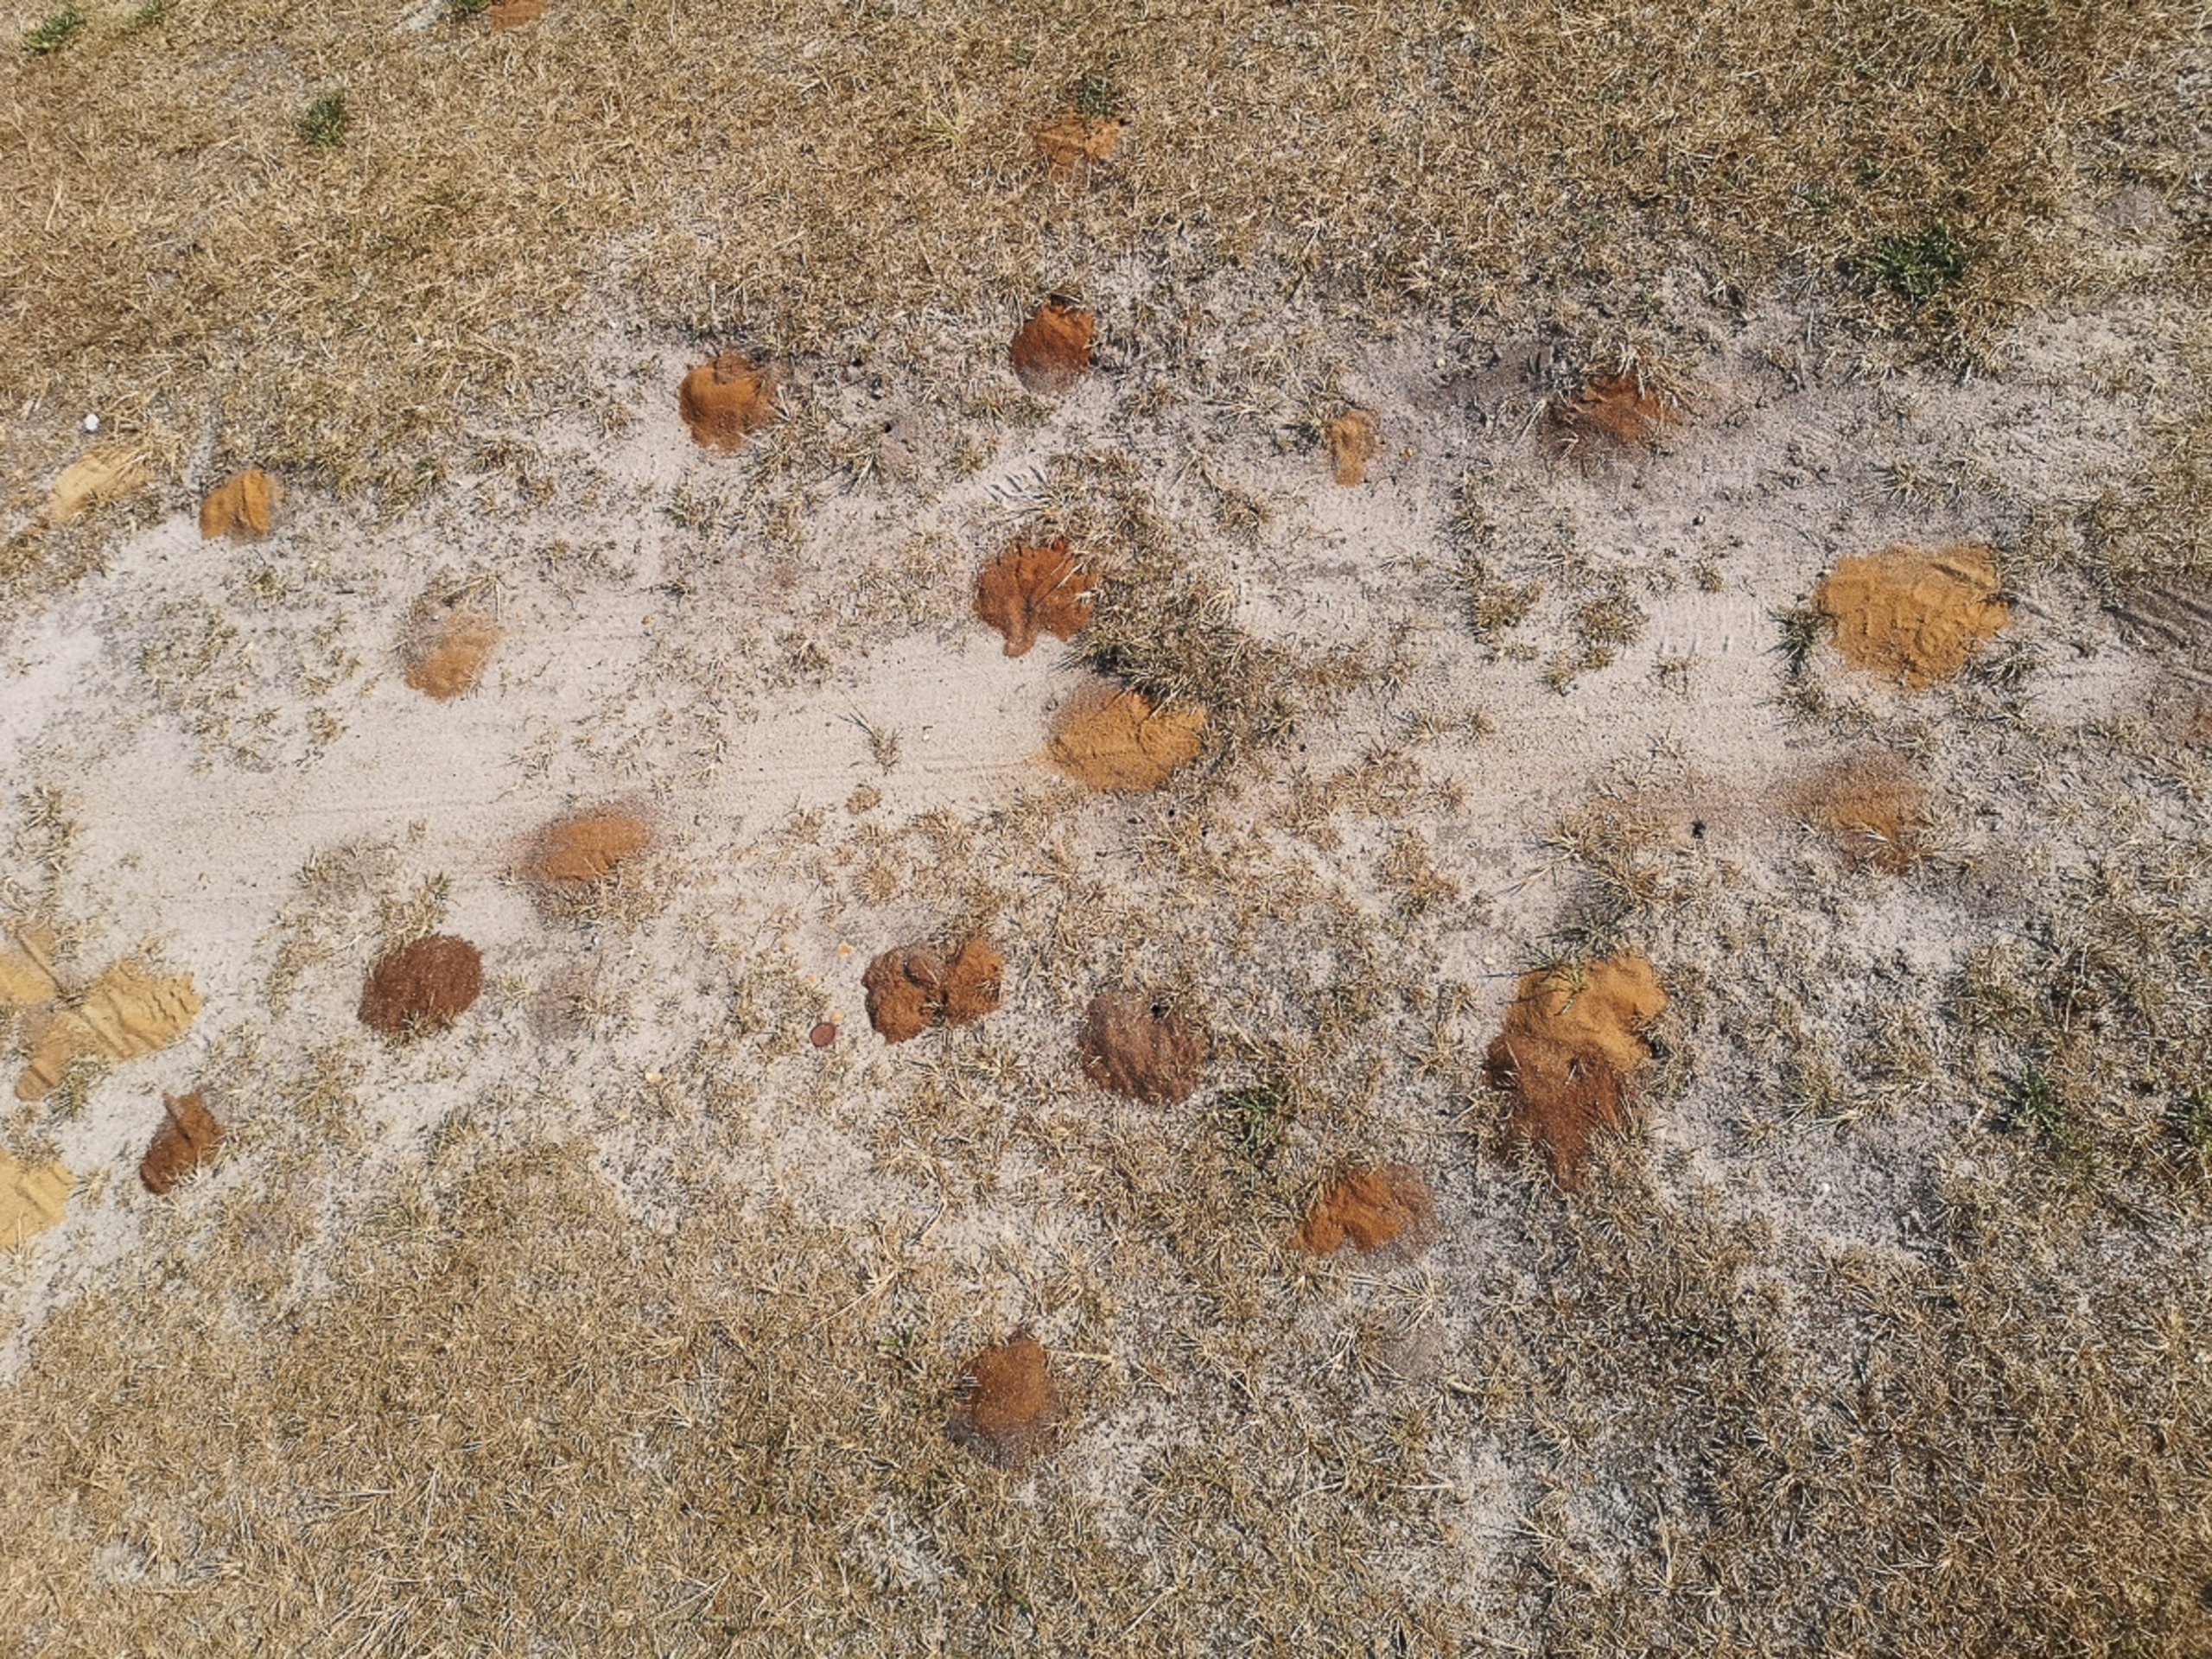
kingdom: Animalia
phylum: Arthropoda
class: Insecta
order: Hymenoptera
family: Melittidae
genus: Dasypoda
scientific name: Dasypoda hirtipes
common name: Pragtbuksebi
